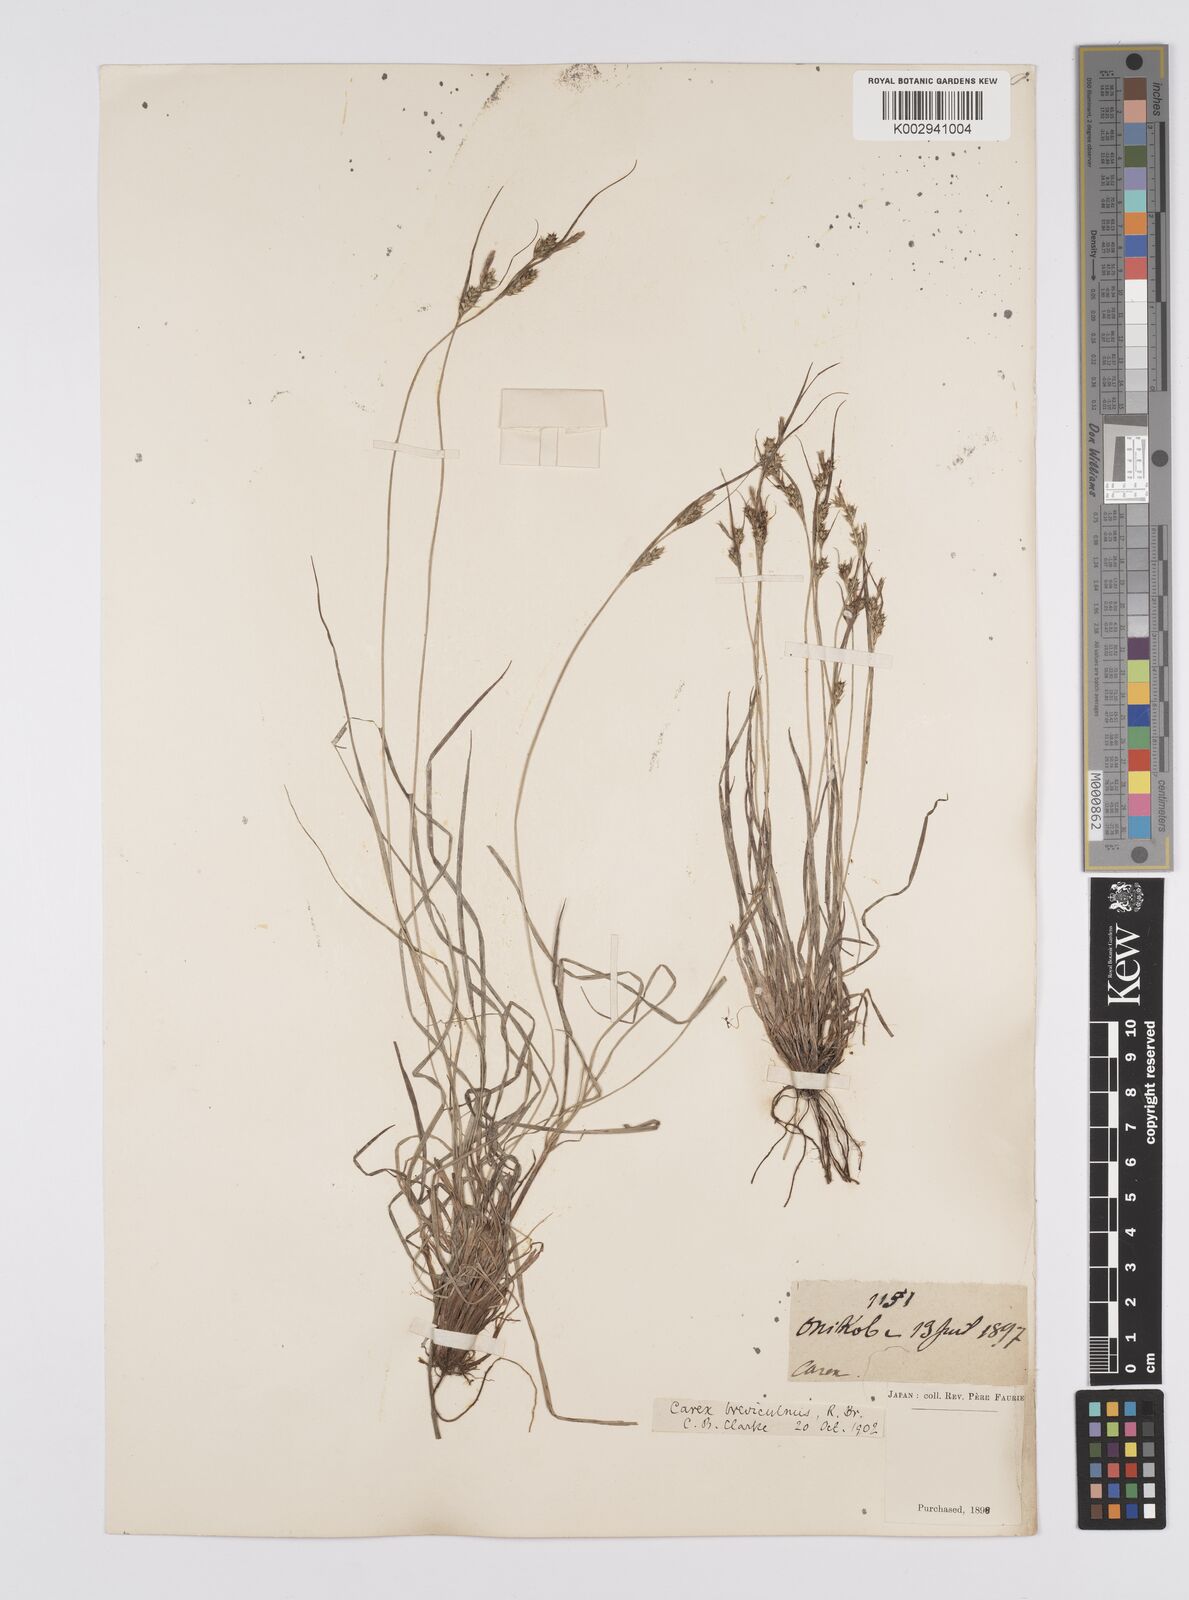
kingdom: Plantae
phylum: Tracheophyta
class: Liliopsida
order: Poales
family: Cyperaceae
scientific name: Cyperaceae
